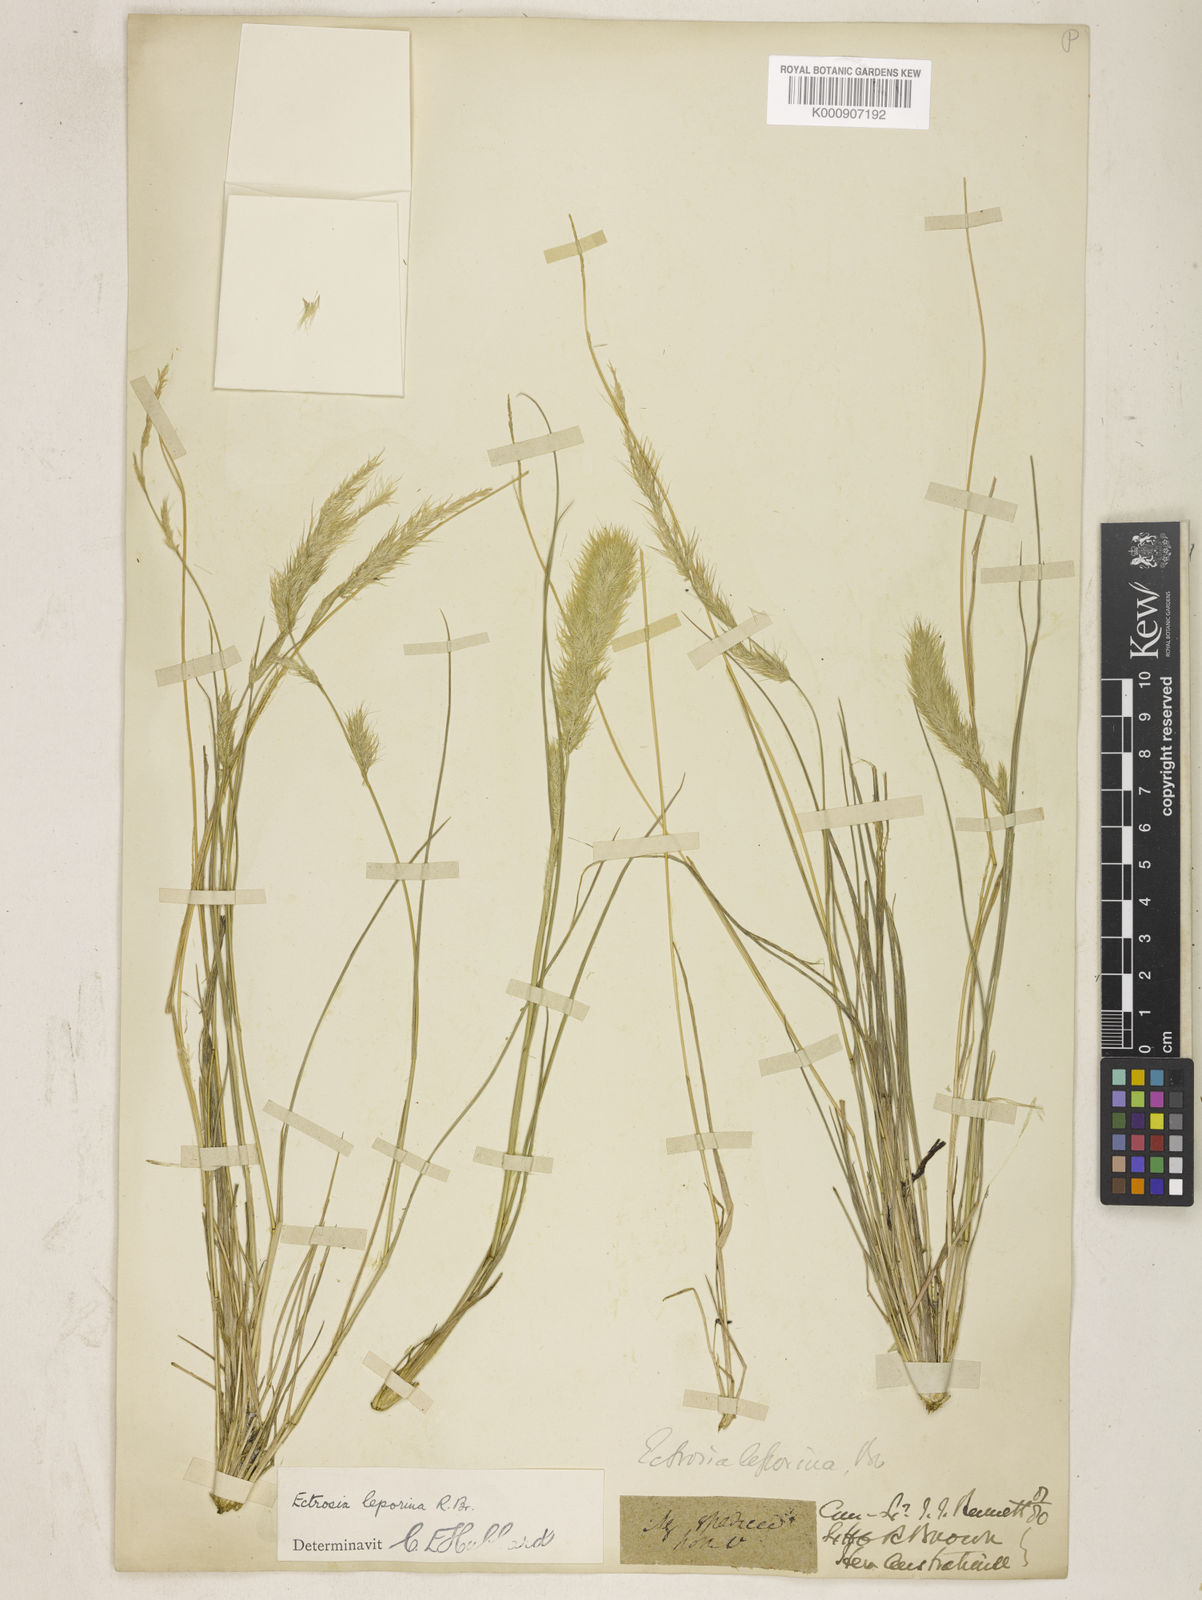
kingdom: Plantae
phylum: Tracheophyta
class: Liliopsida
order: Poales
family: Poaceae
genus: Eragrostis
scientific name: Eragrostis leporina
